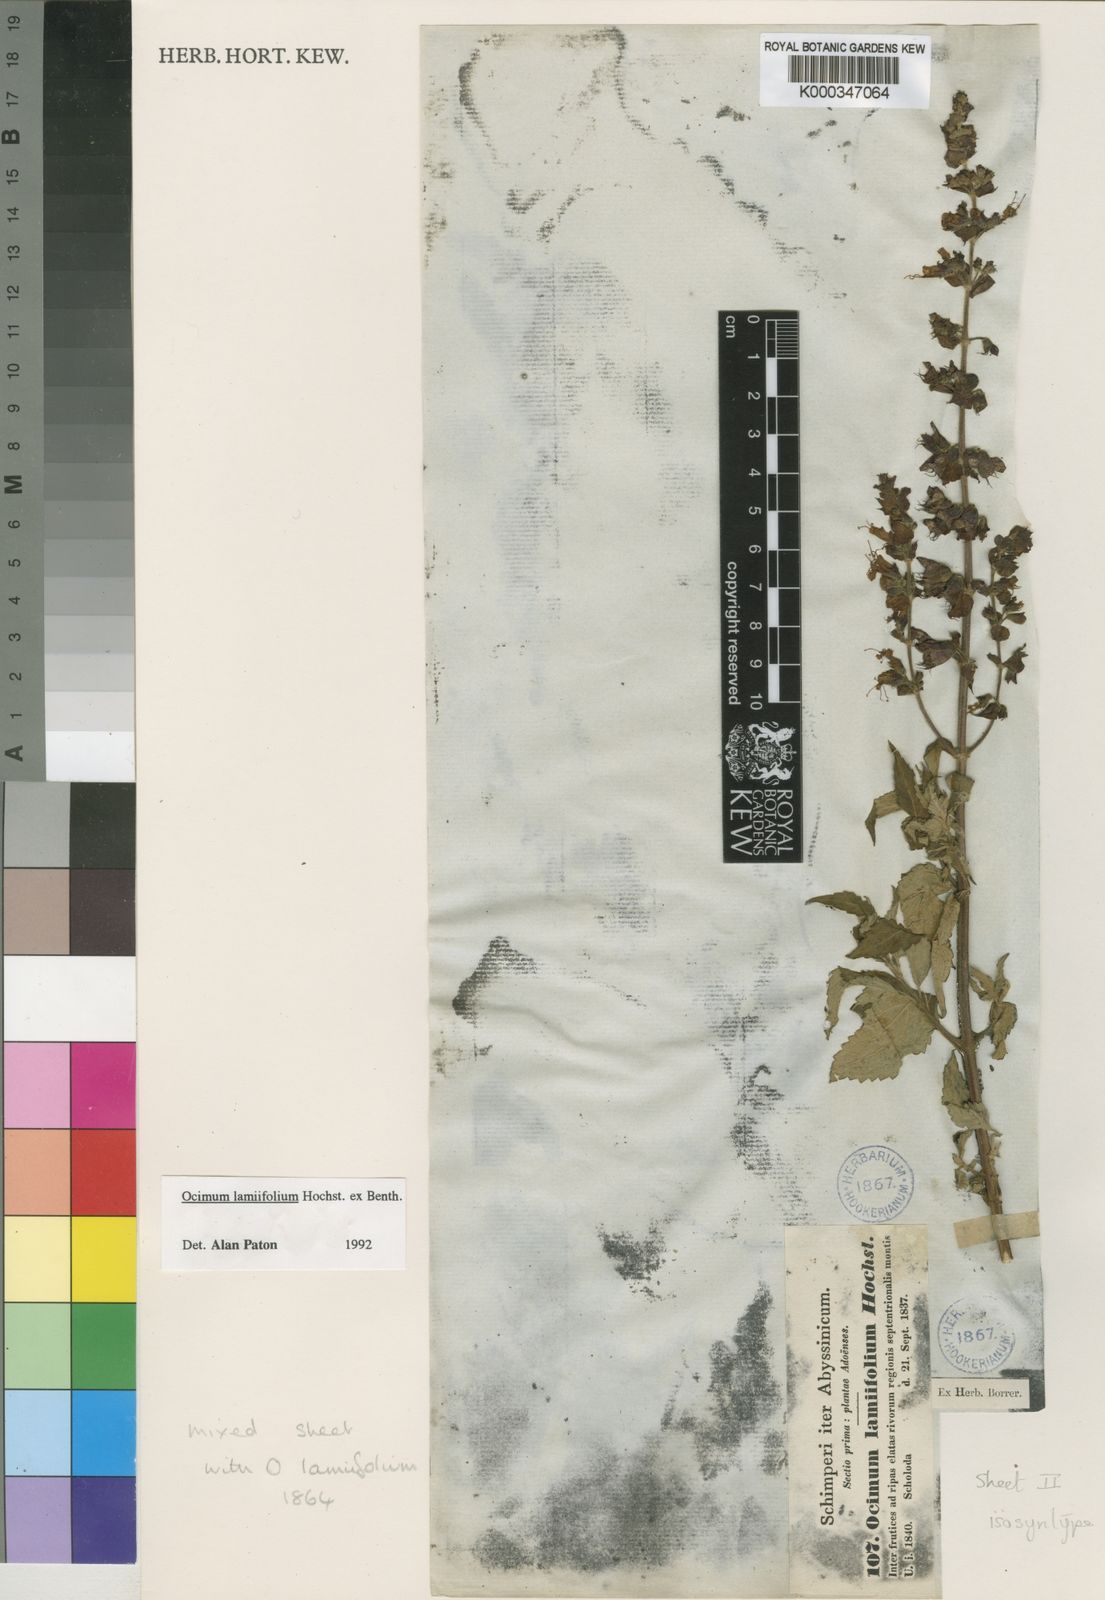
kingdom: Plantae
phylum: Tracheophyta
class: Magnoliopsida
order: Lamiales
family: Lamiaceae
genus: Ocimum
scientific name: Ocimum lamiifolium
